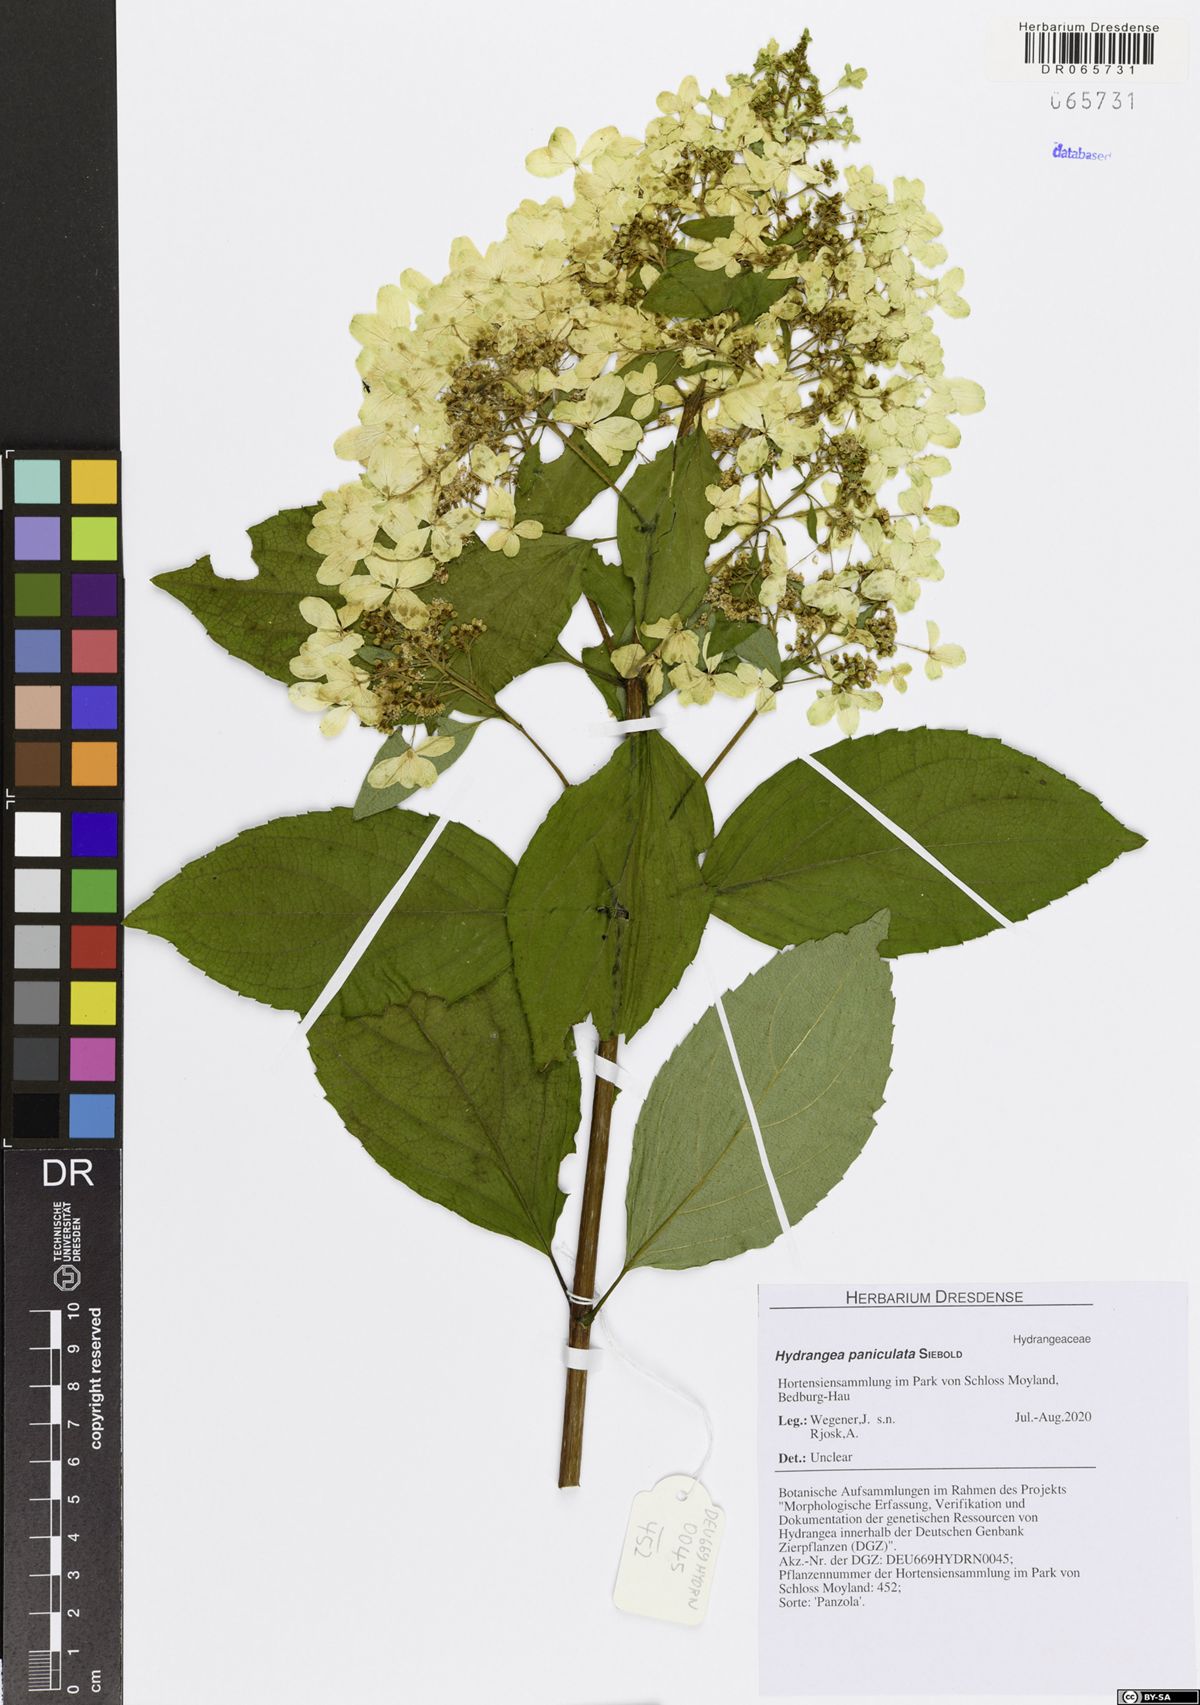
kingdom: Plantae
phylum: Tracheophyta
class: Magnoliopsida
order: Cornales
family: Hydrangeaceae
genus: Hydrangea
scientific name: Hydrangea paniculata
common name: Panicled hydrangea
